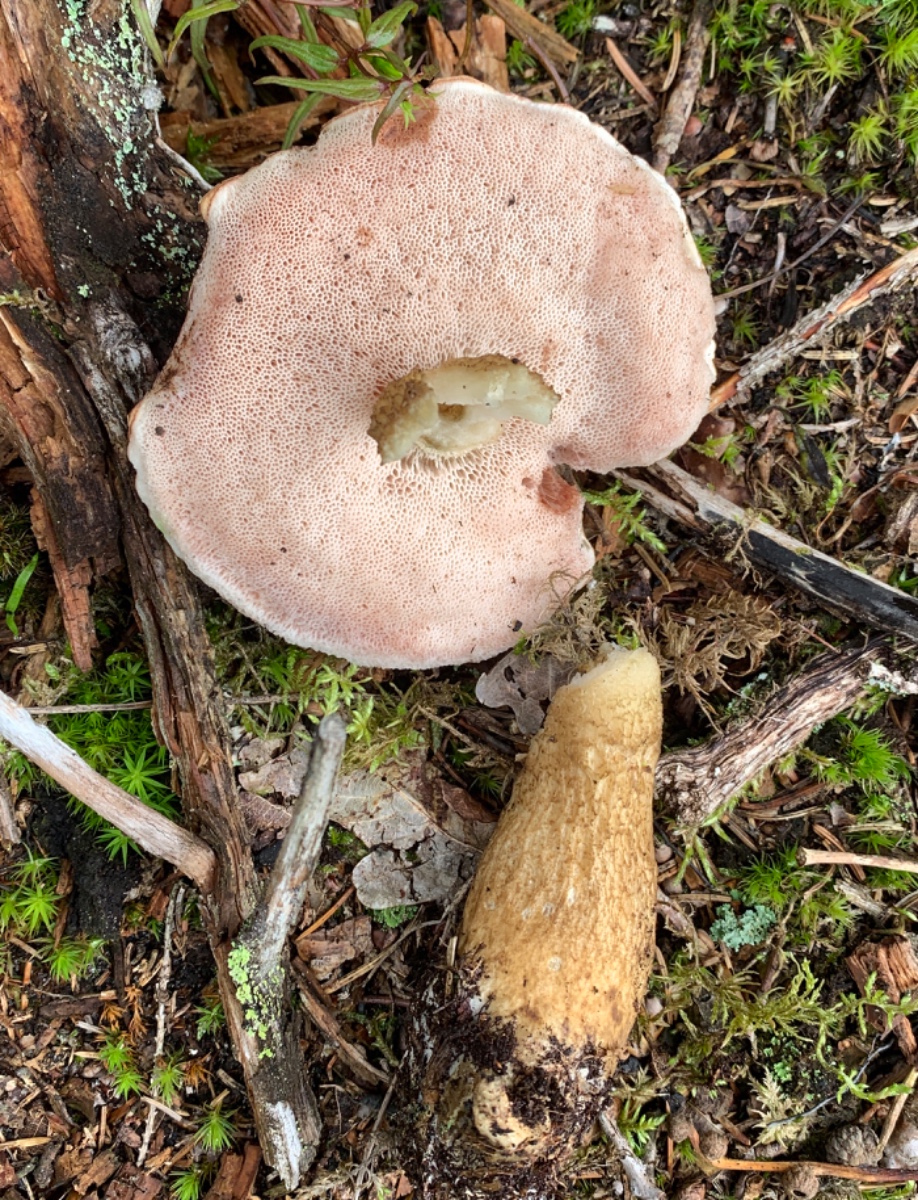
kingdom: Fungi
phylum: Basidiomycota
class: Agaricomycetes
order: Boletales
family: Boletaceae
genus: Tylopilus
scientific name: Tylopilus felleus
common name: galderørhat
